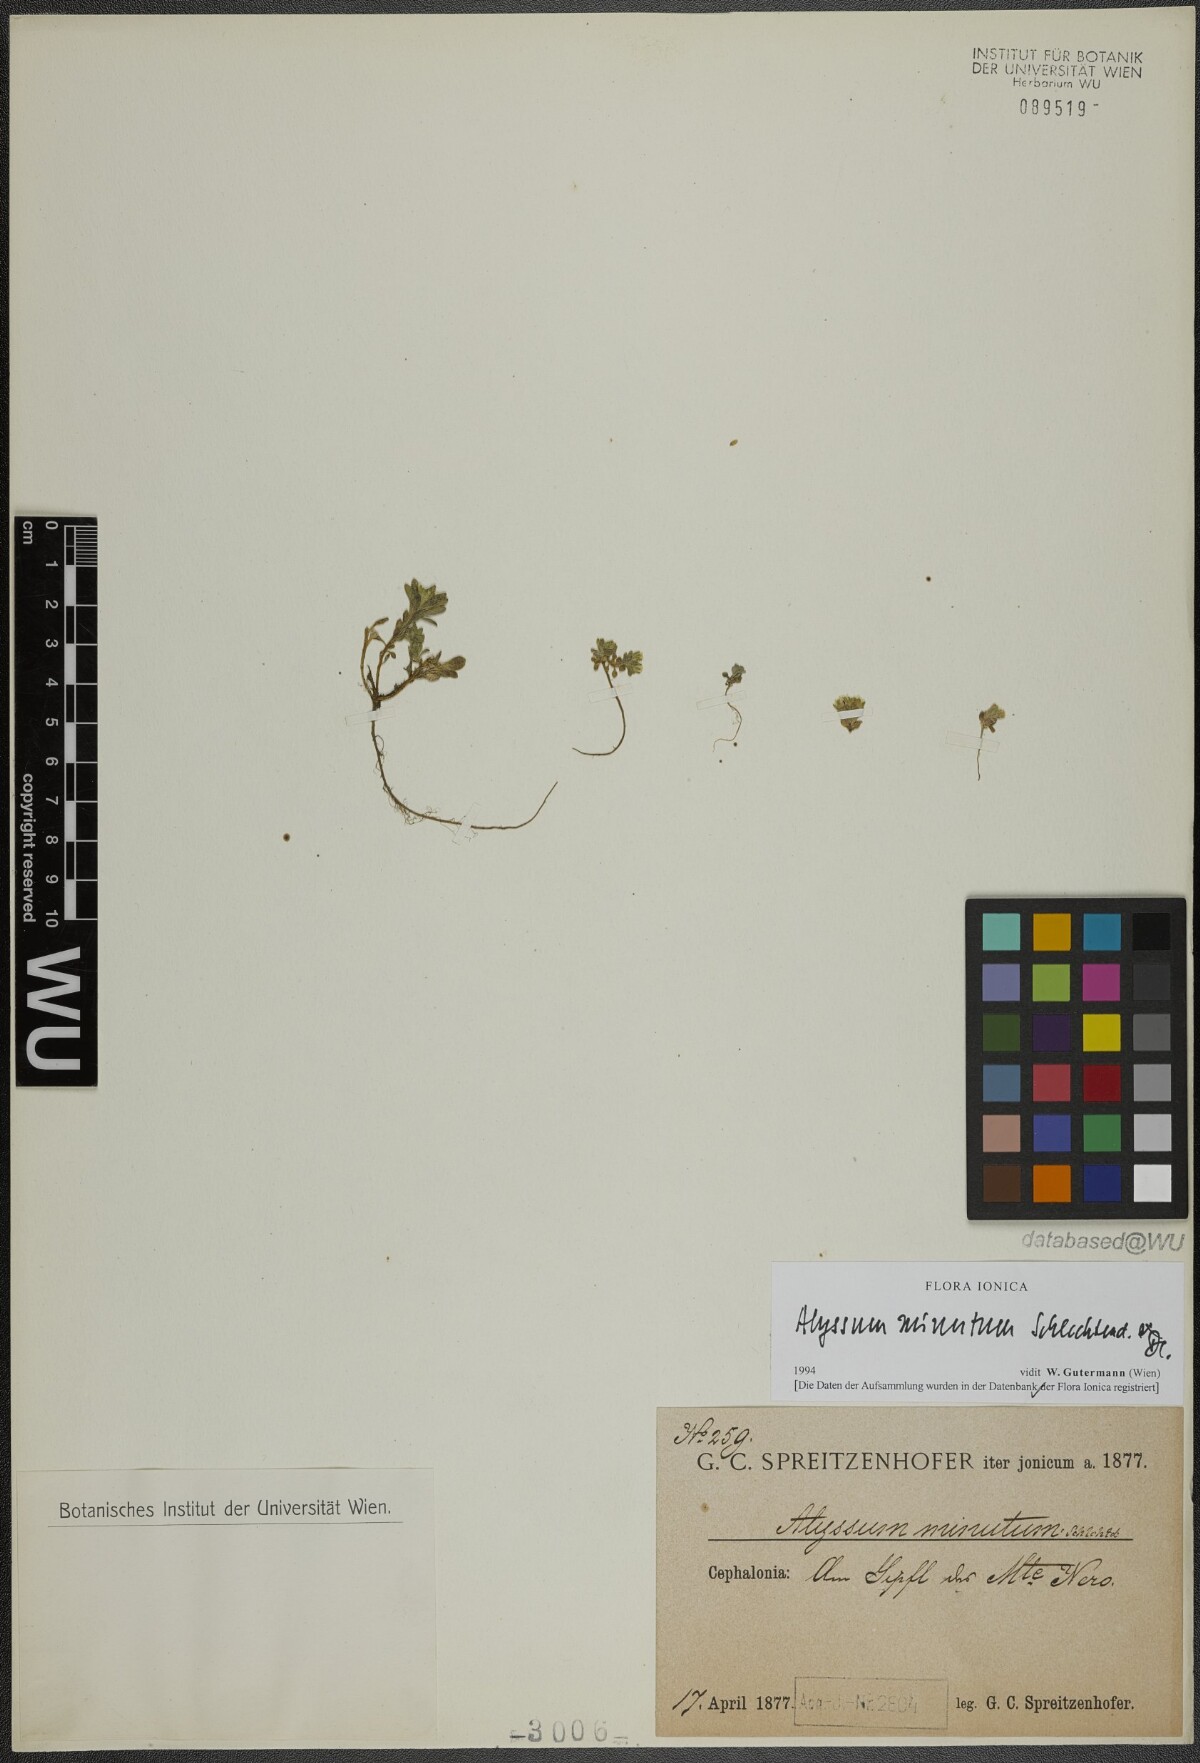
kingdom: Plantae
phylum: Tracheophyta
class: Magnoliopsida
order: Brassicales
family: Brassicaceae
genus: Alyssum
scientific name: Alyssum minutum
